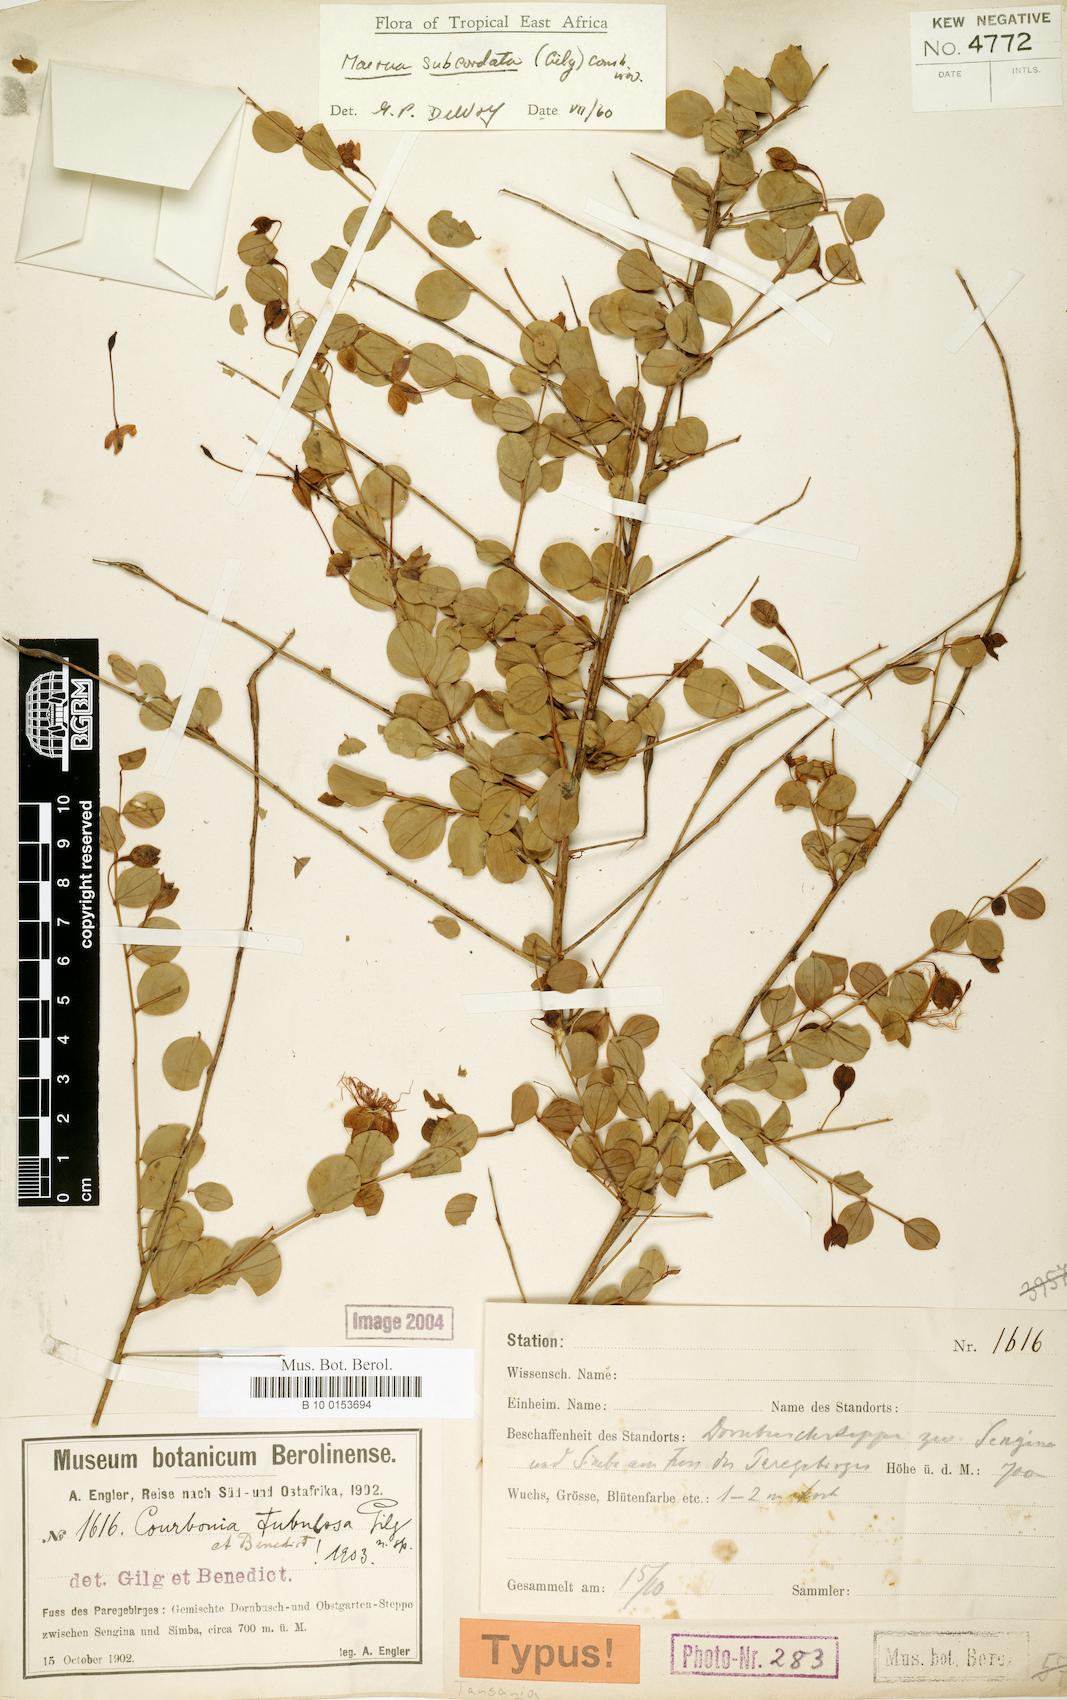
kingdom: Plantae
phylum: Tracheophyta
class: Magnoliopsida
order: Brassicales
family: Capparaceae
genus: Maerua
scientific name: Maerua subcordata
